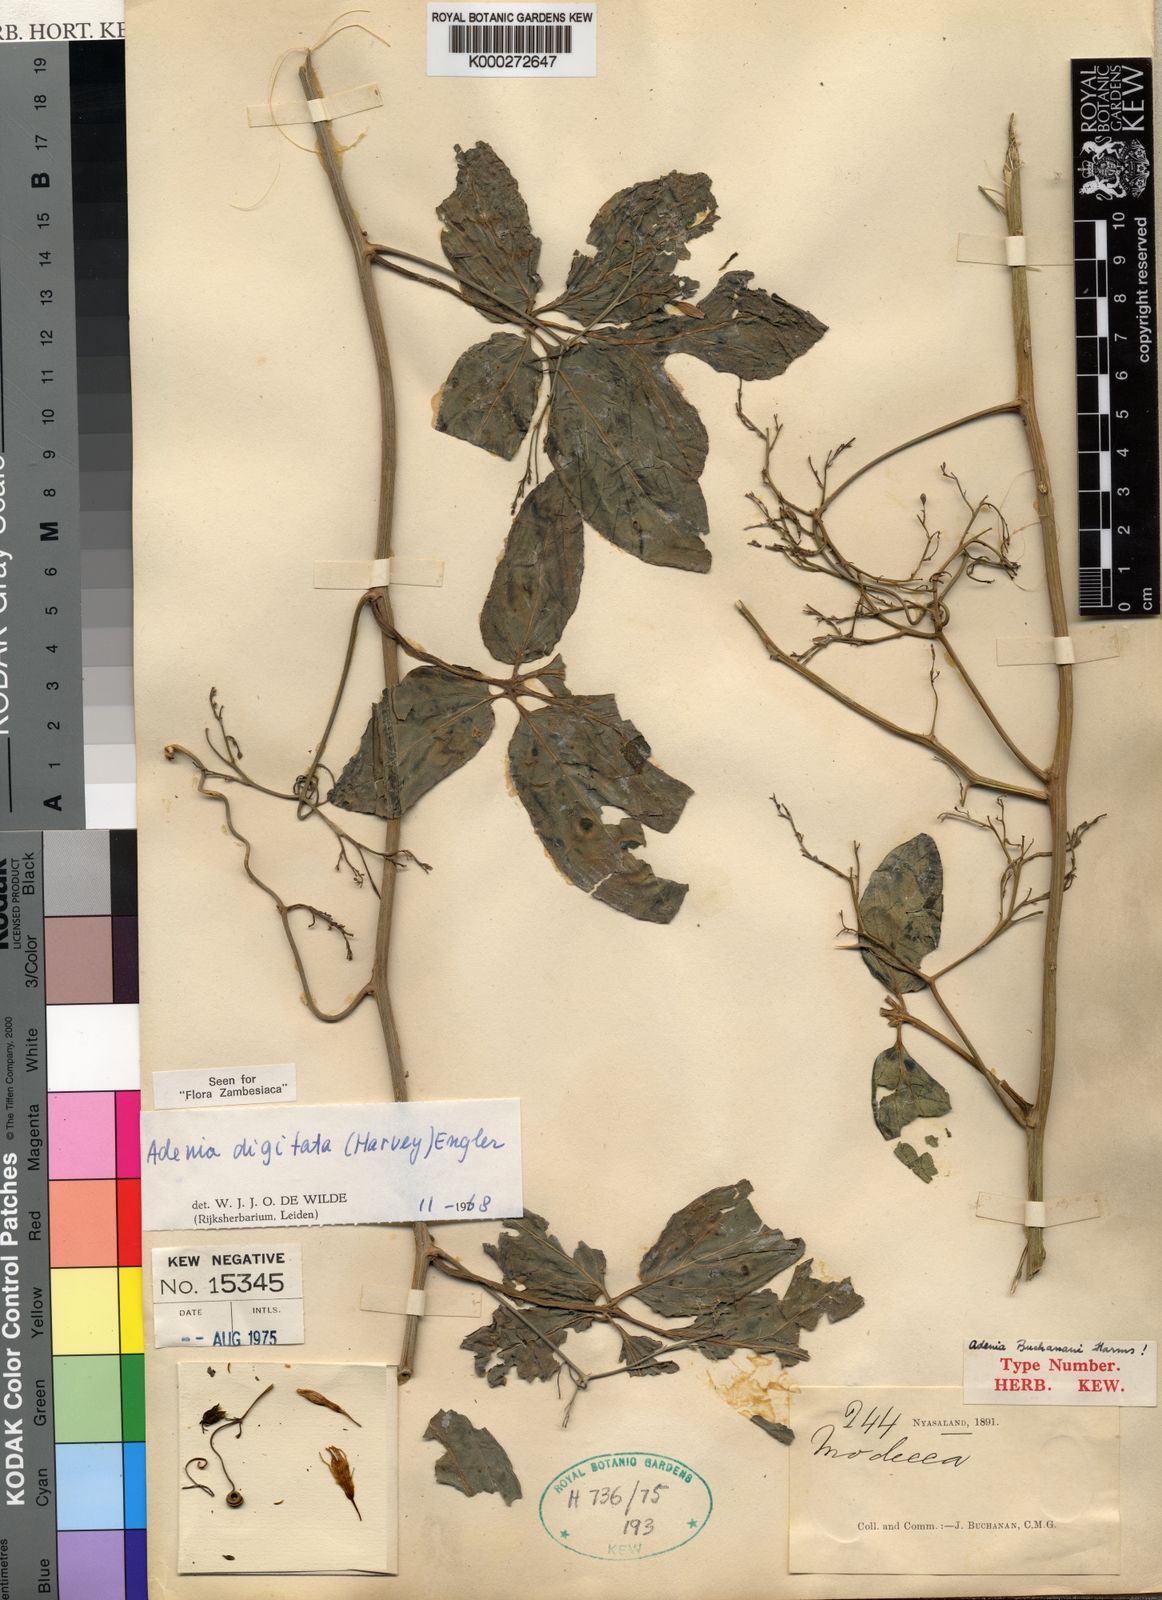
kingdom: Plantae
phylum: Tracheophyta
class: Magnoliopsida
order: Malpighiales
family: Passifloraceae
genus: Adenia
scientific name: Adenia digitata
